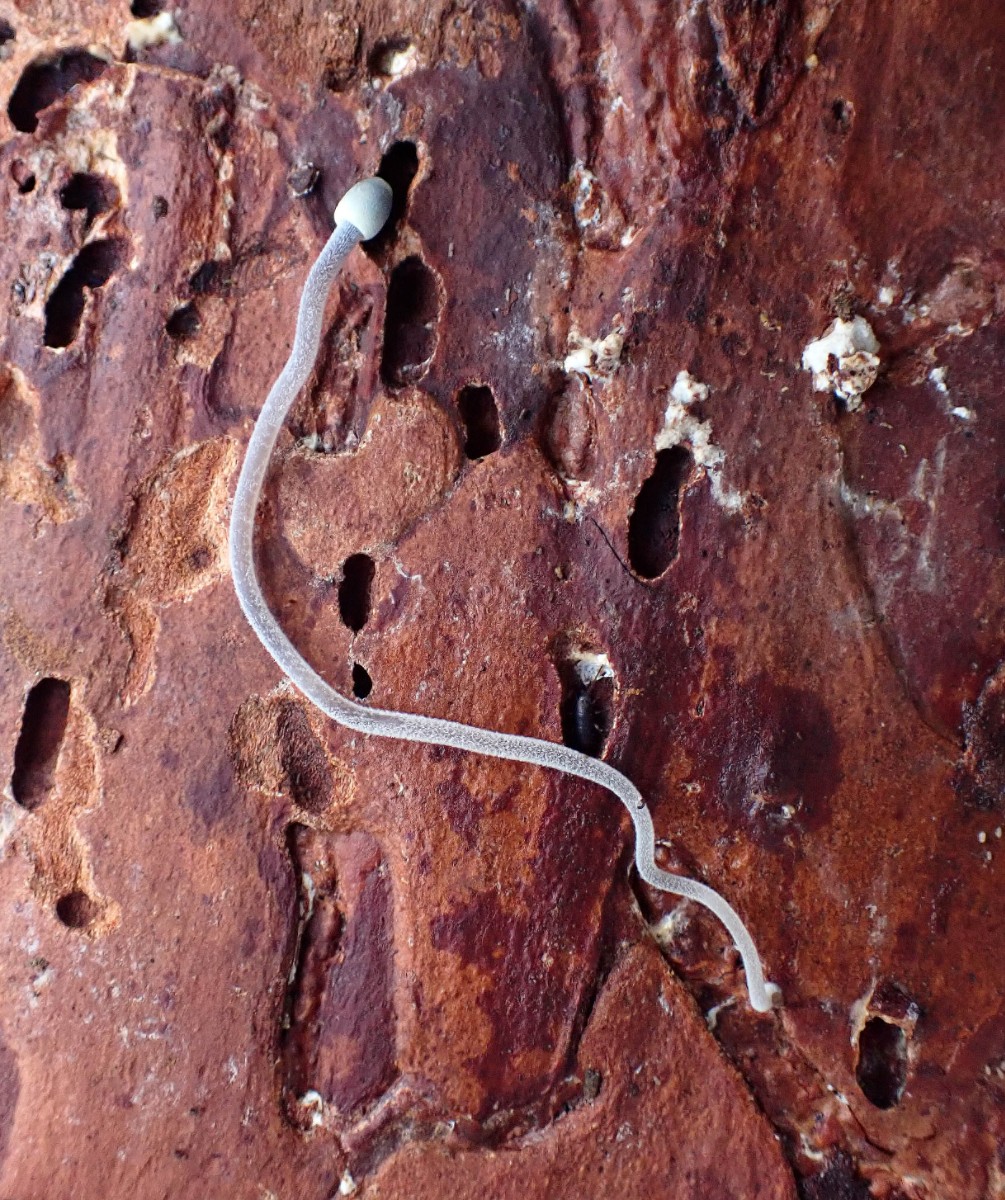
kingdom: Fungi
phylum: Basidiomycota
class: Agaricomycetes
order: Agaricales
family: Mycenaceae
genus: Mycena
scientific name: Mycena amicta
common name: iris-huesvamp
